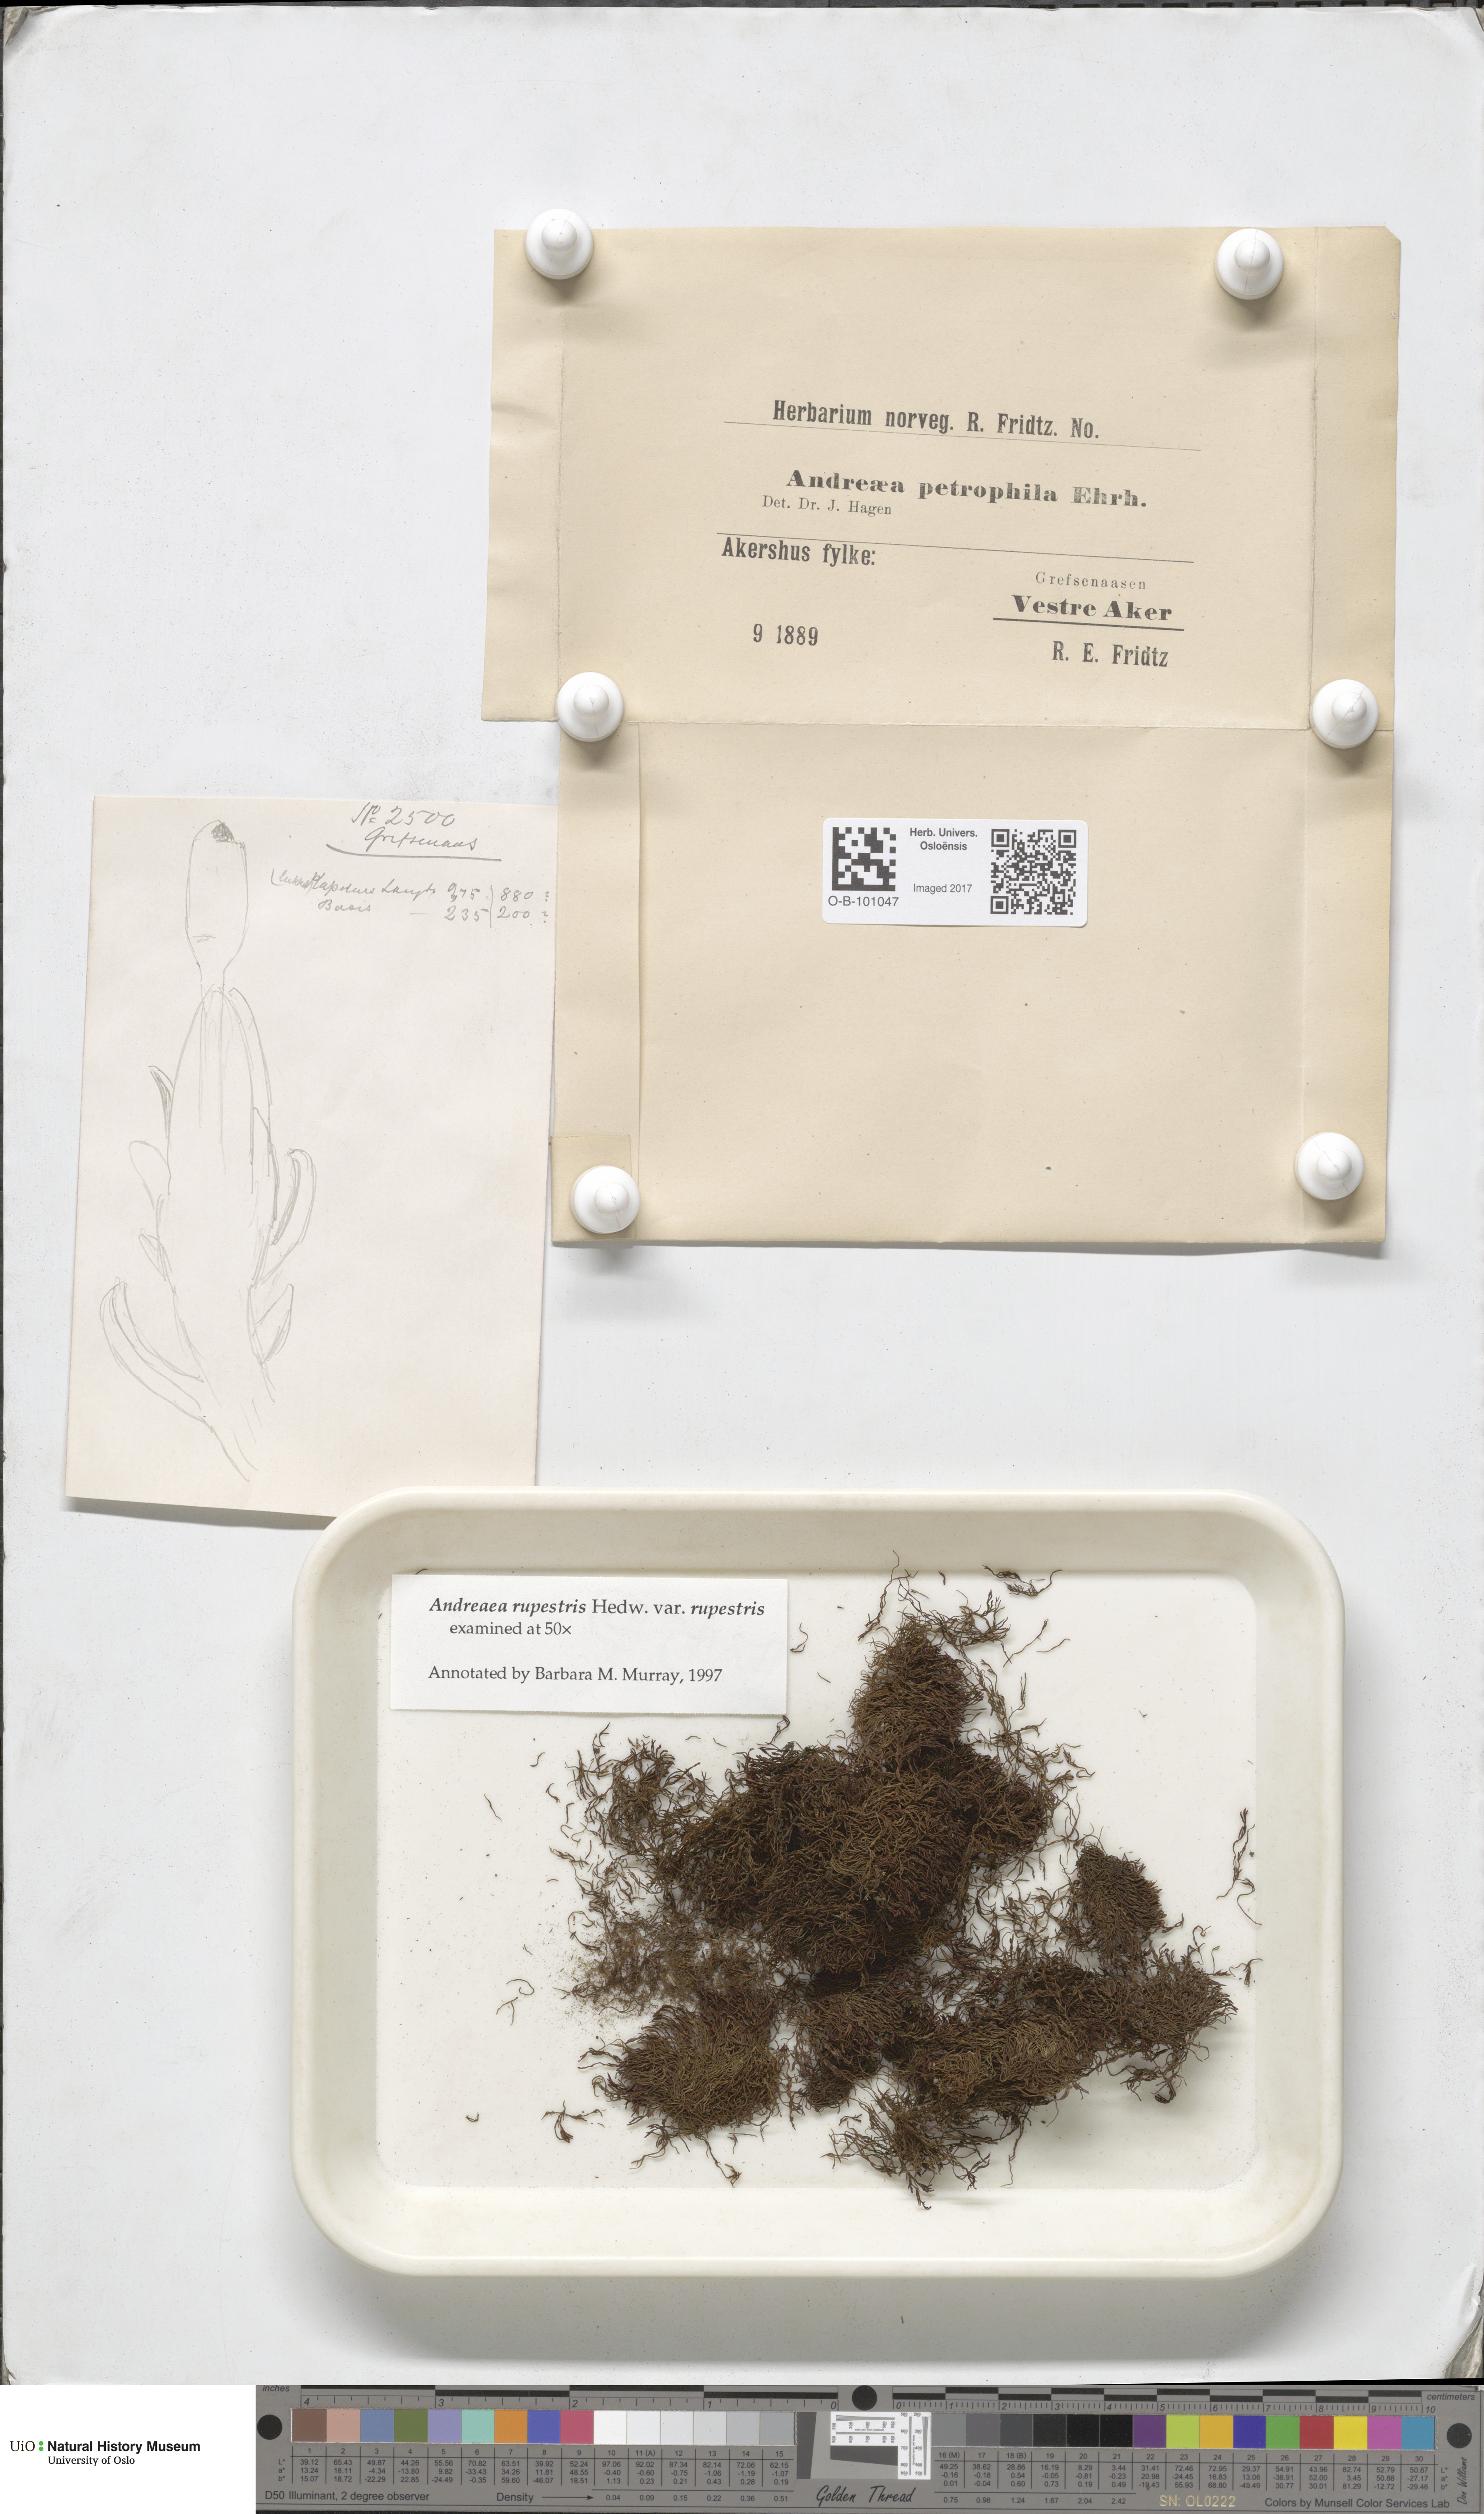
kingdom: Plantae
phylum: Bryophyta
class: Andreaeopsida
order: Andreaeales
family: Andreaeaceae
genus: Andreaea
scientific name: Andreaea rupestris
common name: Black rock moss
